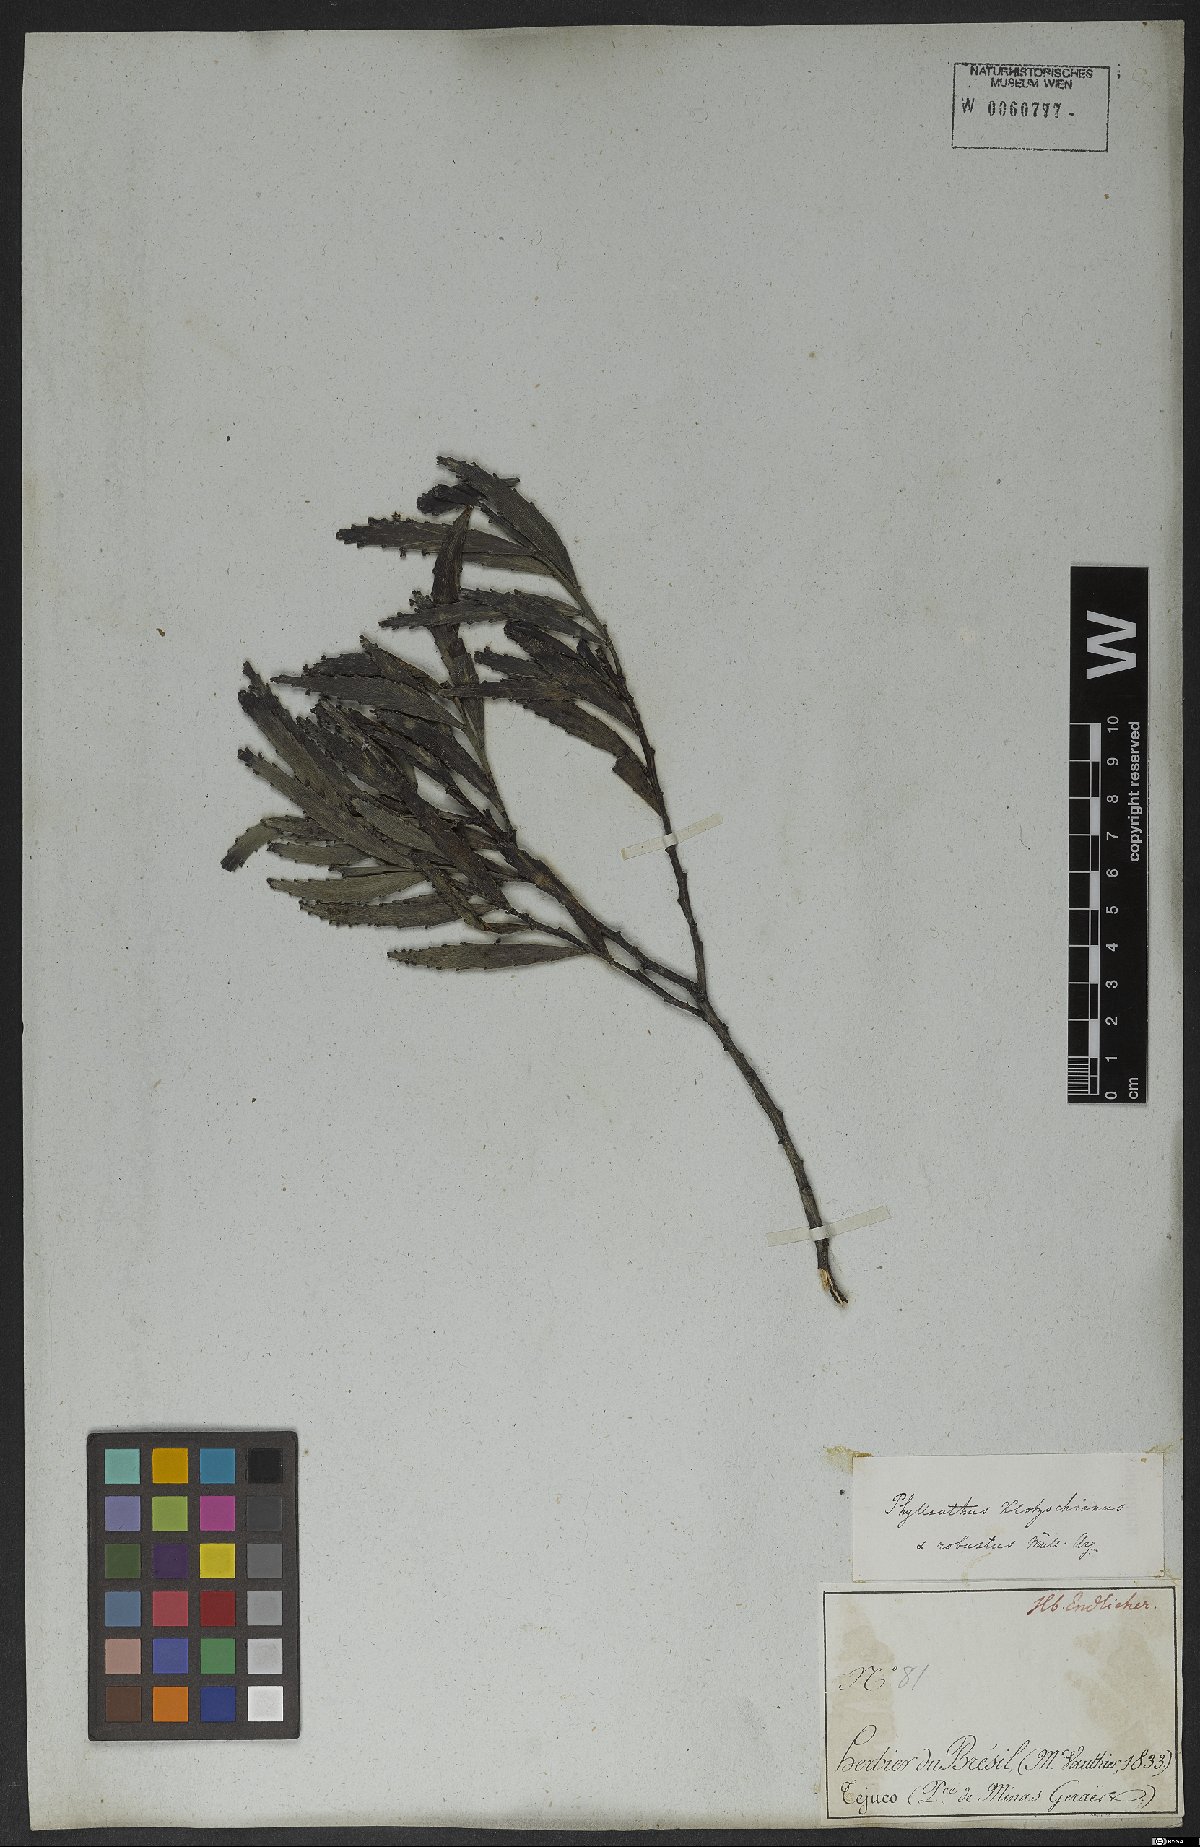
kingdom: Plantae
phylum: Tracheophyta
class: Magnoliopsida
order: Malpighiales
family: Phyllanthaceae
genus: Phyllanthus
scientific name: Phyllanthus robustus
